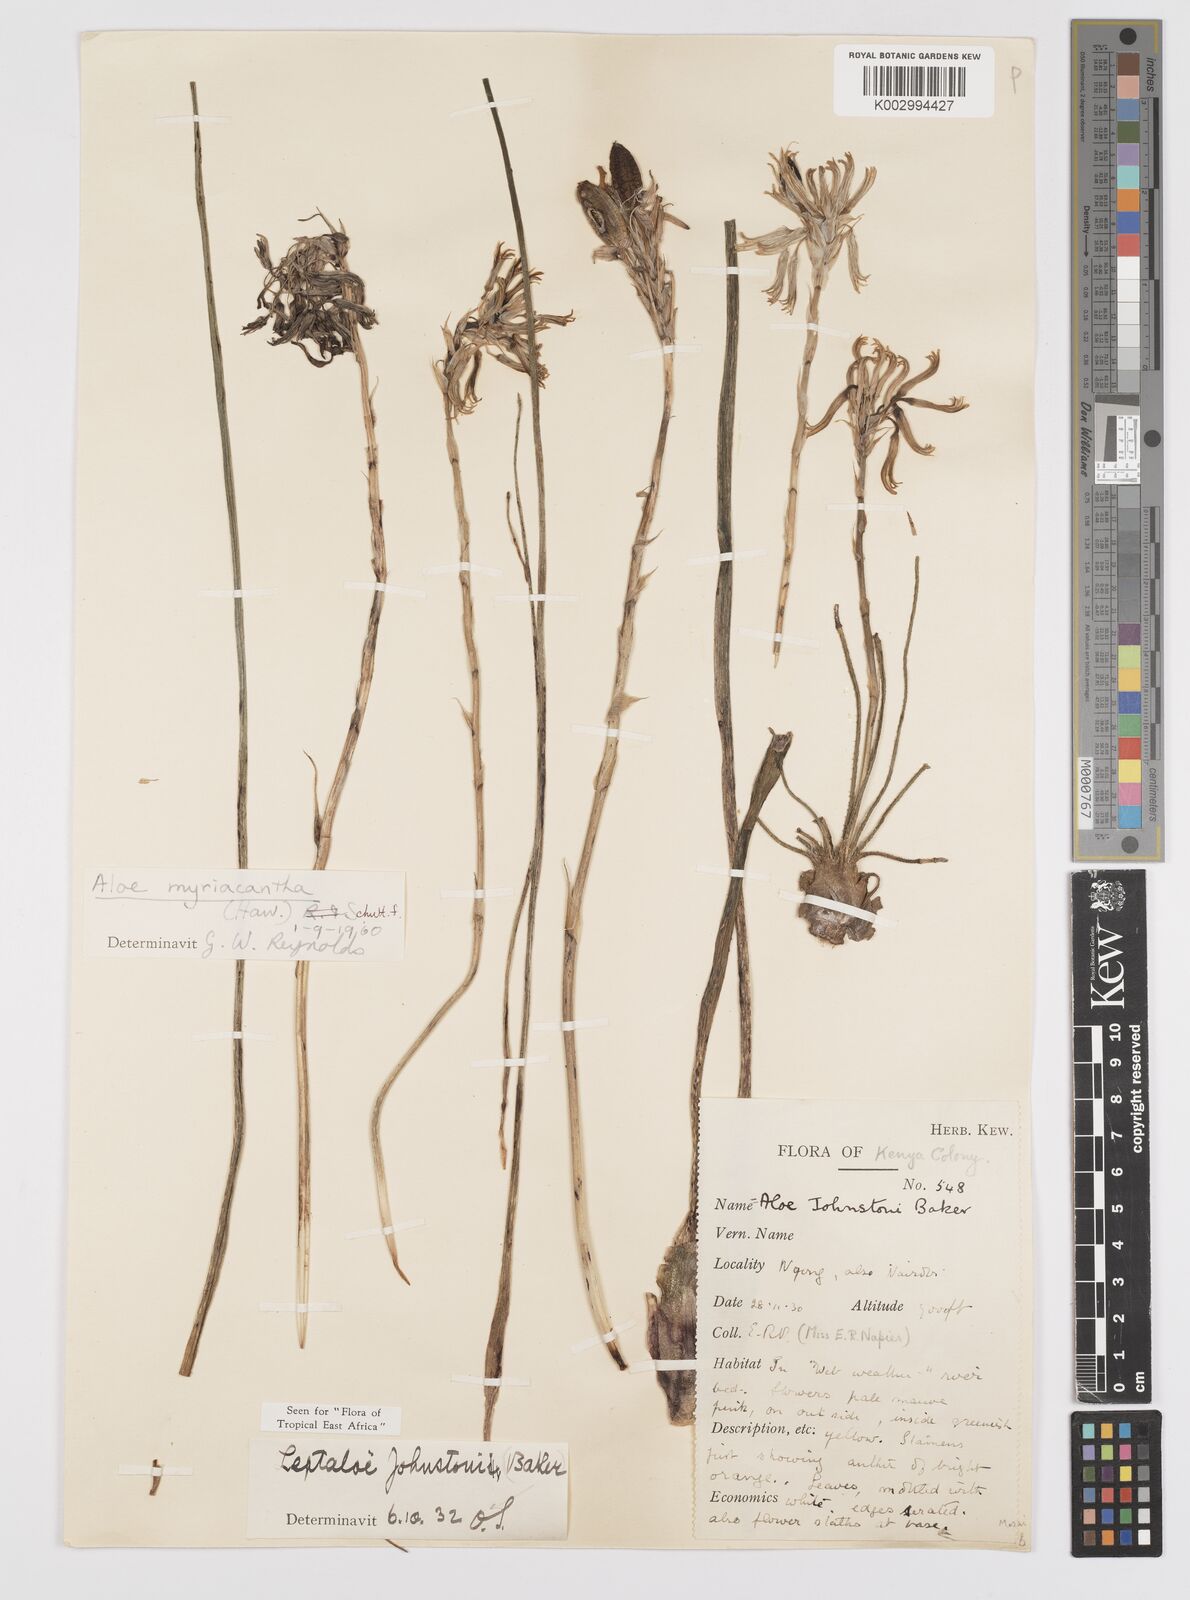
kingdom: Plantae
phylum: Tracheophyta
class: Liliopsida
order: Asparagales
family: Asphodelaceae
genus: Aloe
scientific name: Aloe myriacantha
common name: Grass aloe
